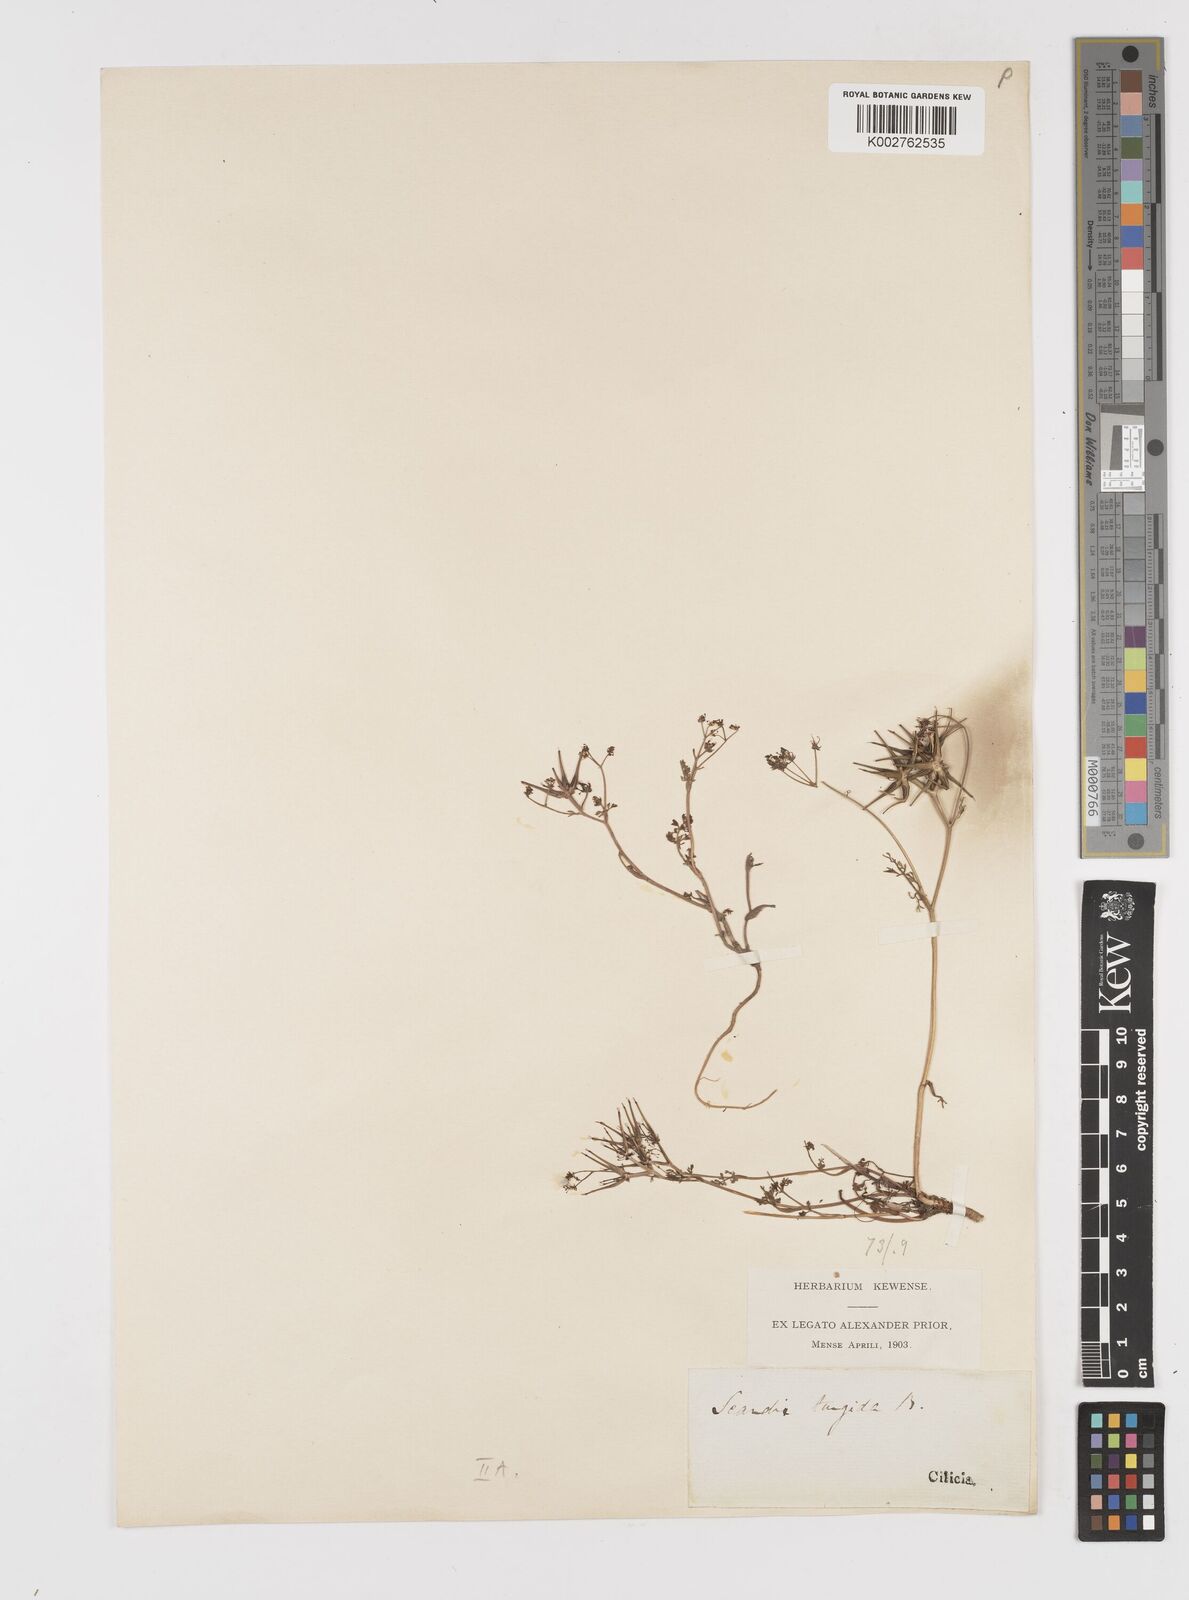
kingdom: Plantae
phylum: Tracheophyta
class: Magnoliopsida
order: Apiales
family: Apiaceae
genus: Scandix
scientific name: Scandix turgida
